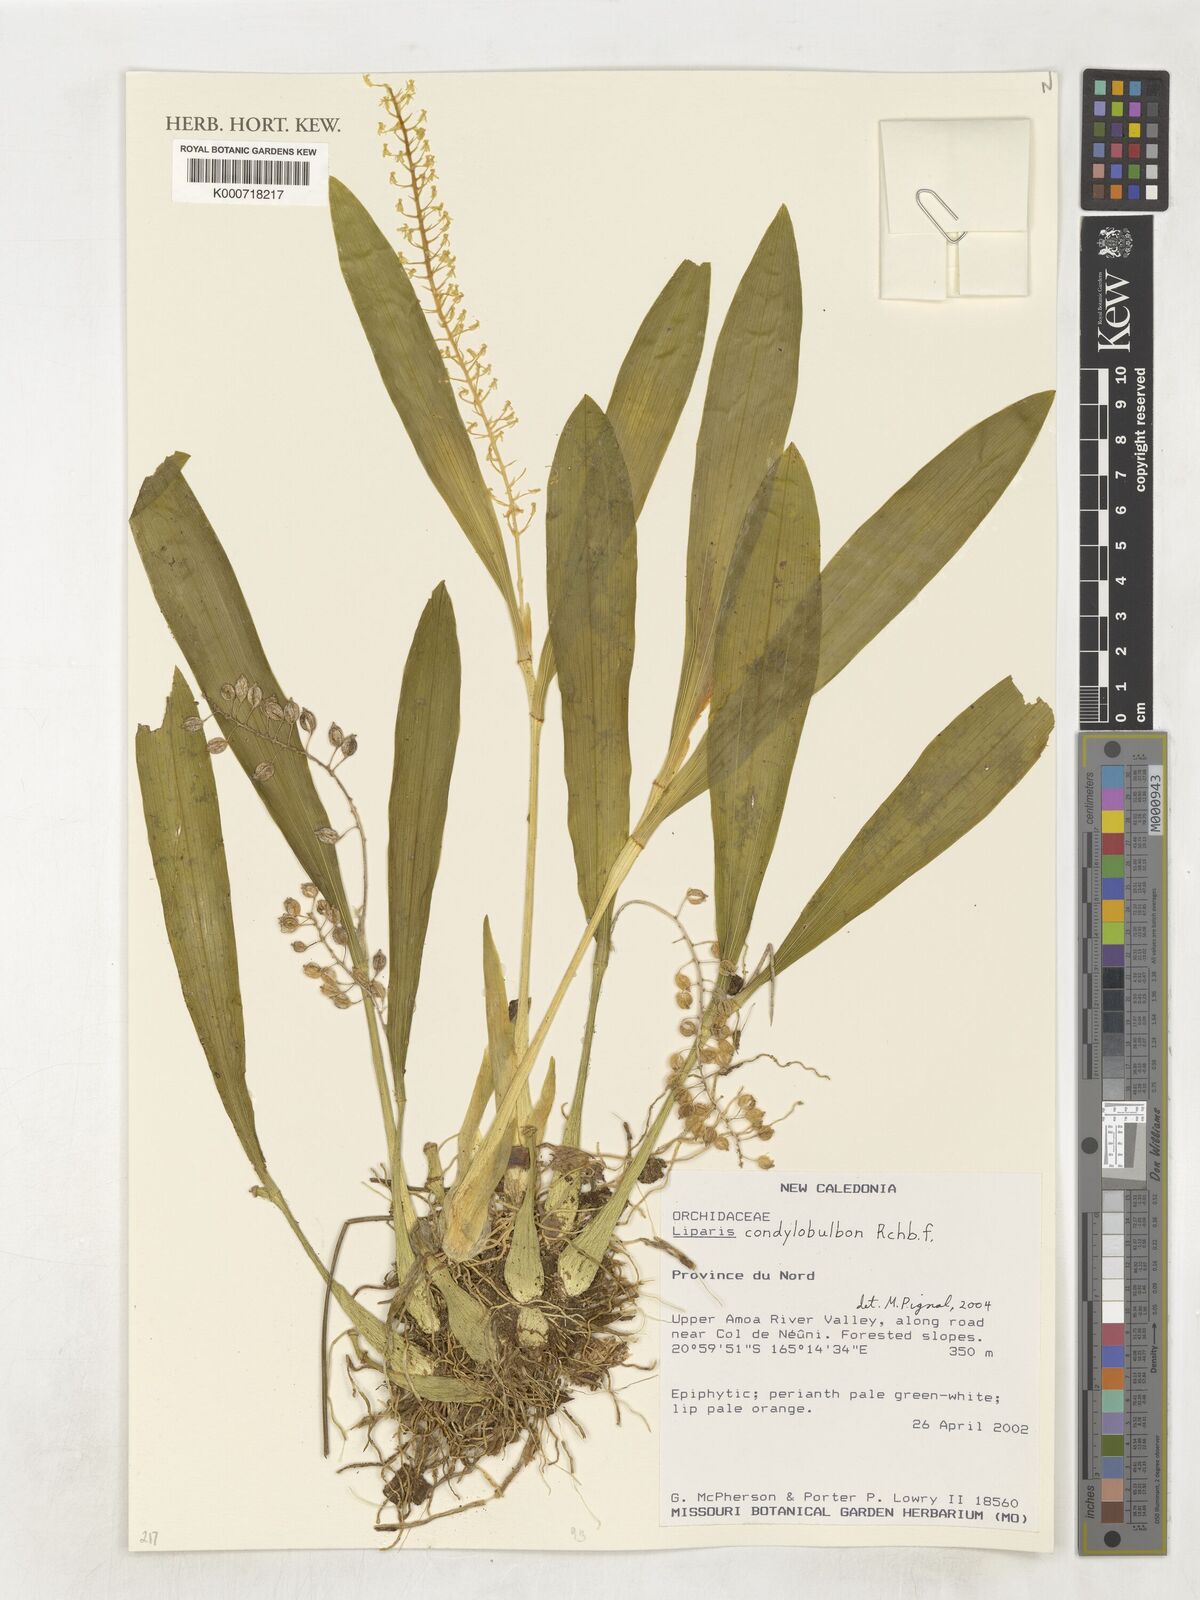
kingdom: Plantae
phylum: Tracheophyta
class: Liliopsida
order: Asparagales
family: Orchidaceae
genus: Liparis
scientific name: Liparis condylobulbon
